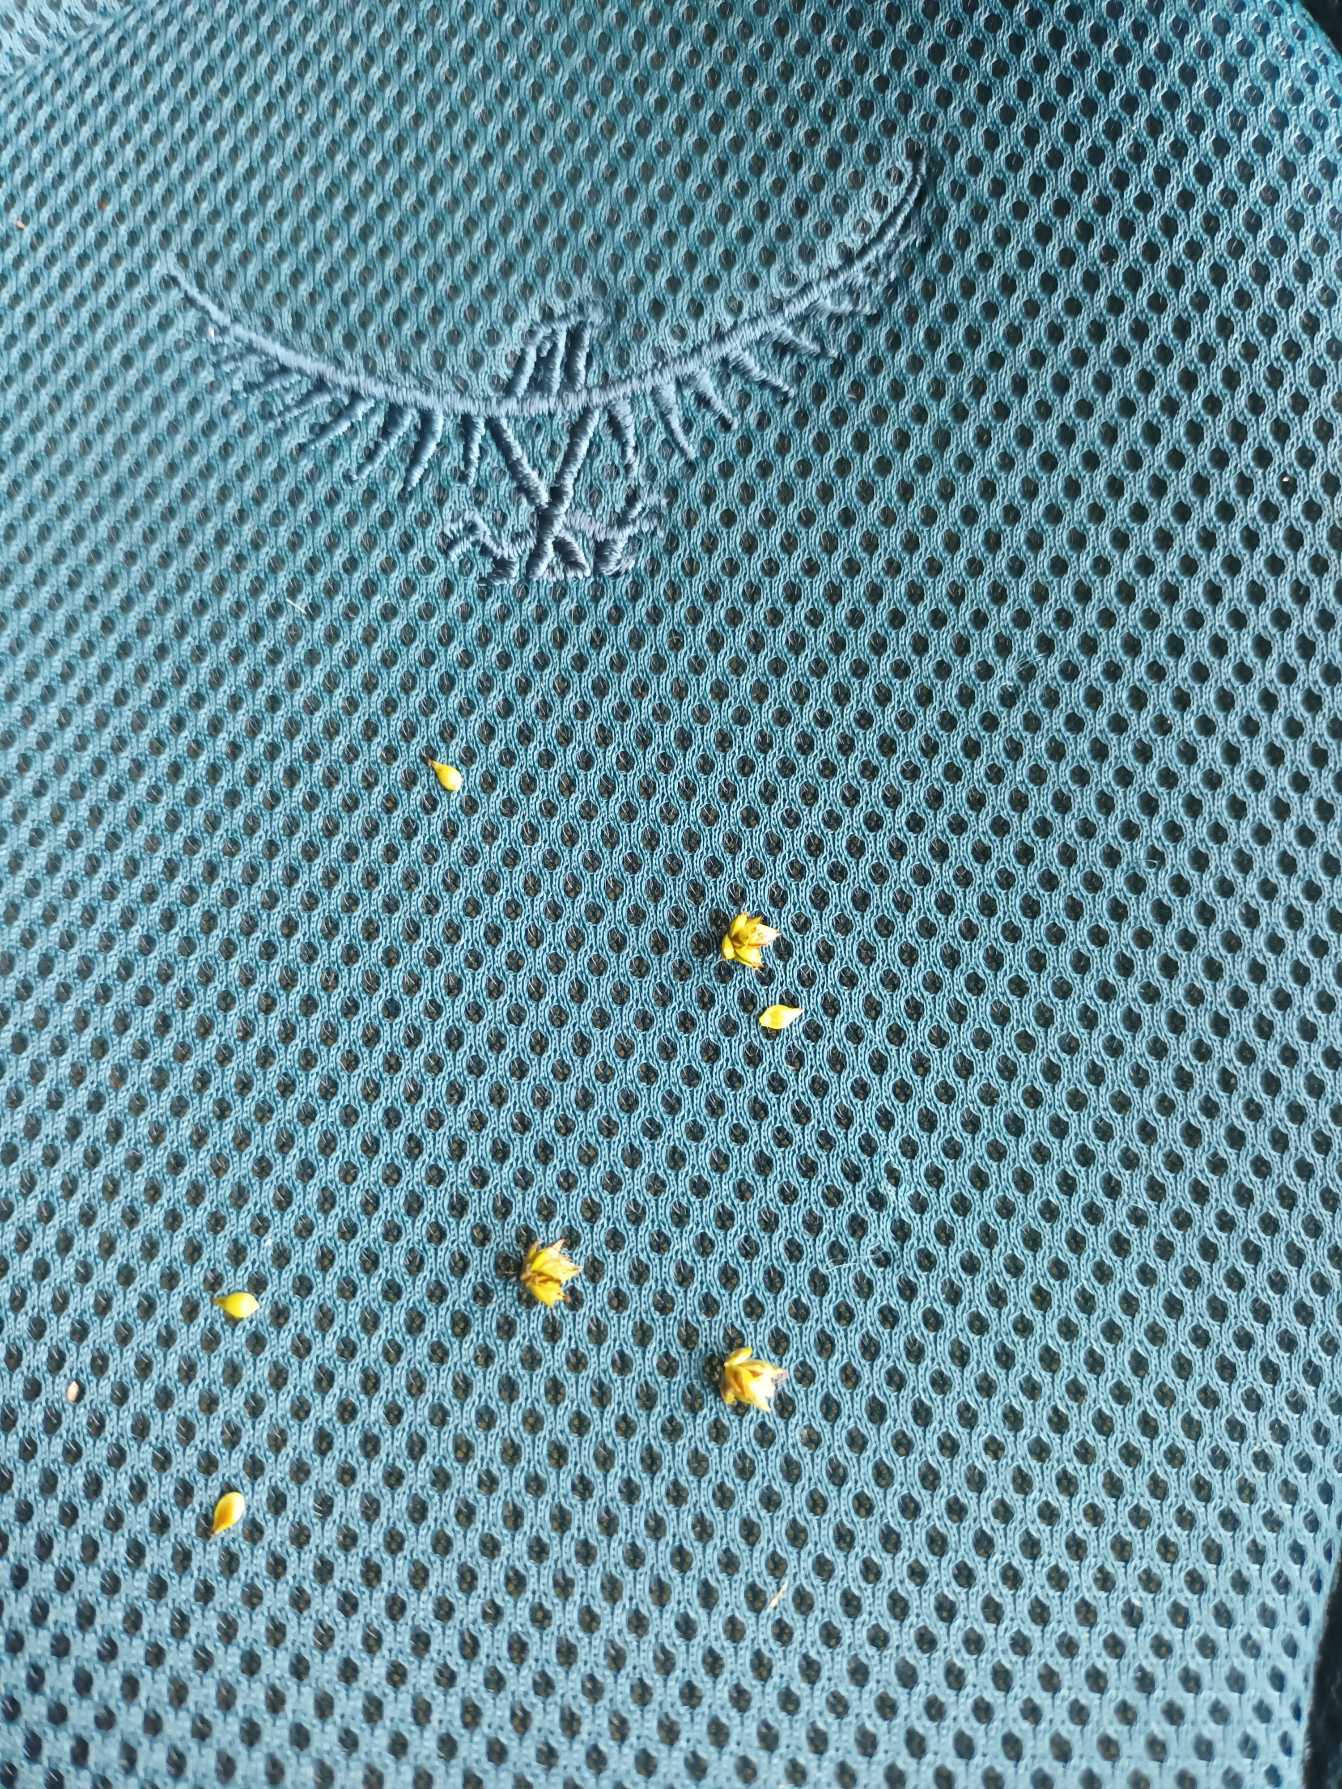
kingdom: Plantae
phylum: Tracheophyta
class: Liliopsida
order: Poales
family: Cyperaceae
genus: Carex
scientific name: Carex pairae
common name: Pigget star
